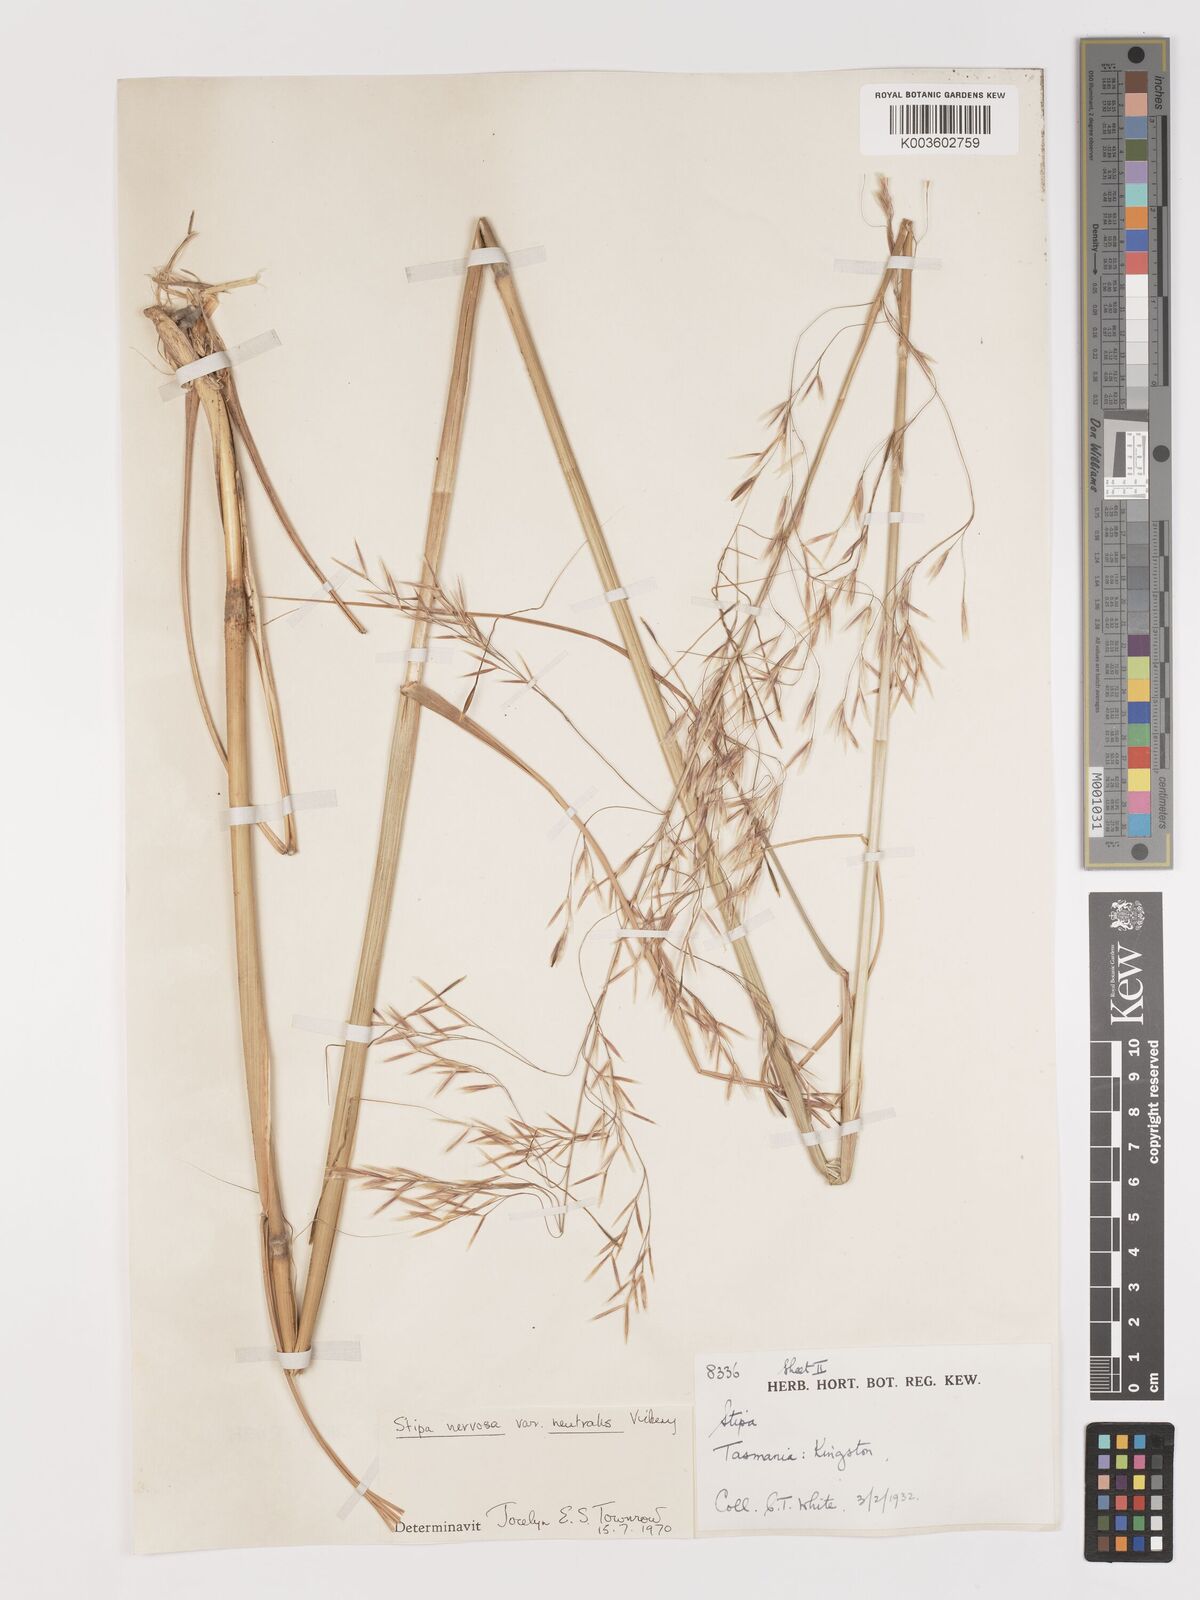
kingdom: Plantae
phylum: Tracheophyta
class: Liliopsida
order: Poales
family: Poaceae
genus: Austrostipa
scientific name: Austrostipa rudis
